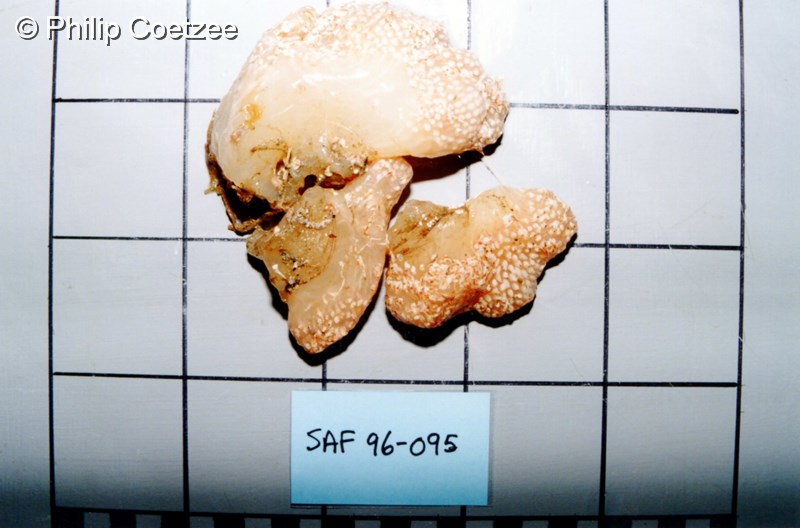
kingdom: Animalia
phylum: Chordata
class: Ascidiacea
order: Aplousobranchia
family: Polycitoridae
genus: Eudistoma
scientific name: Eudistoma
